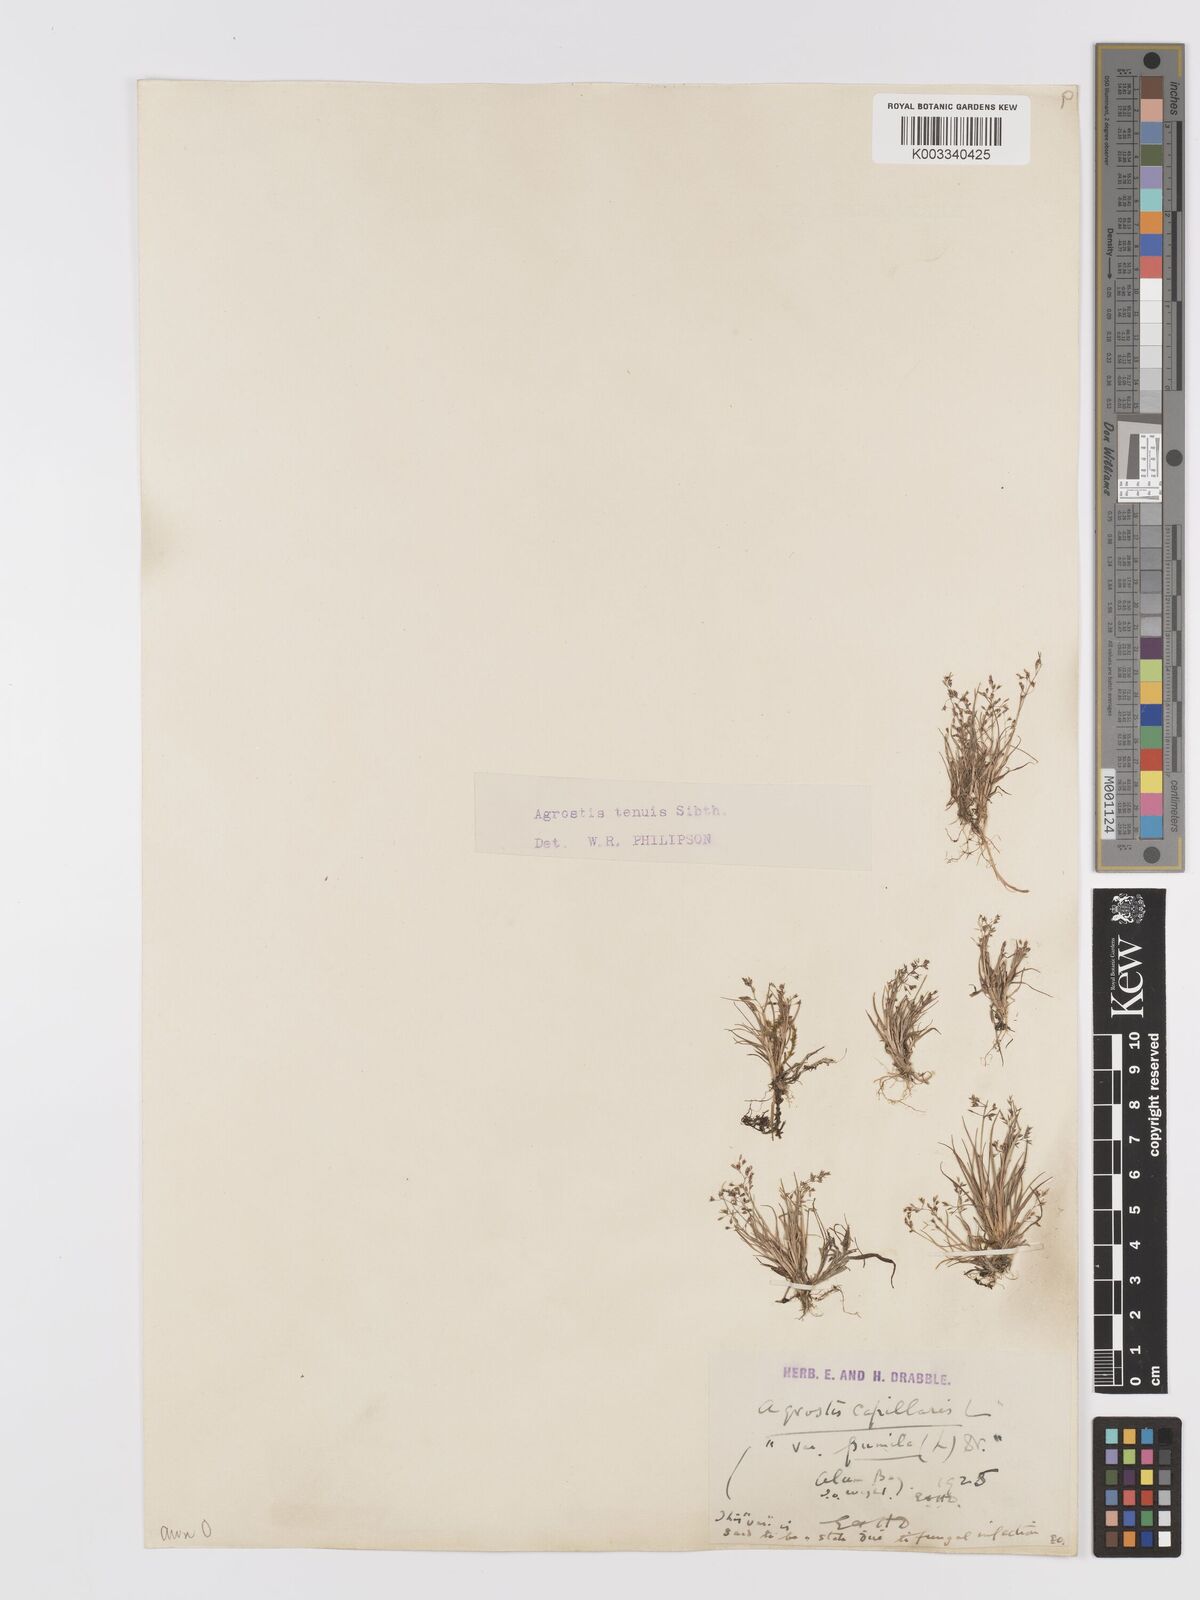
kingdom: Plantae
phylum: Tracheophyta
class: Liliopsida
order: Poales
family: Poaceae
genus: Agrostis
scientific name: Agrostis capillaris
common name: Colonial bentgrass
